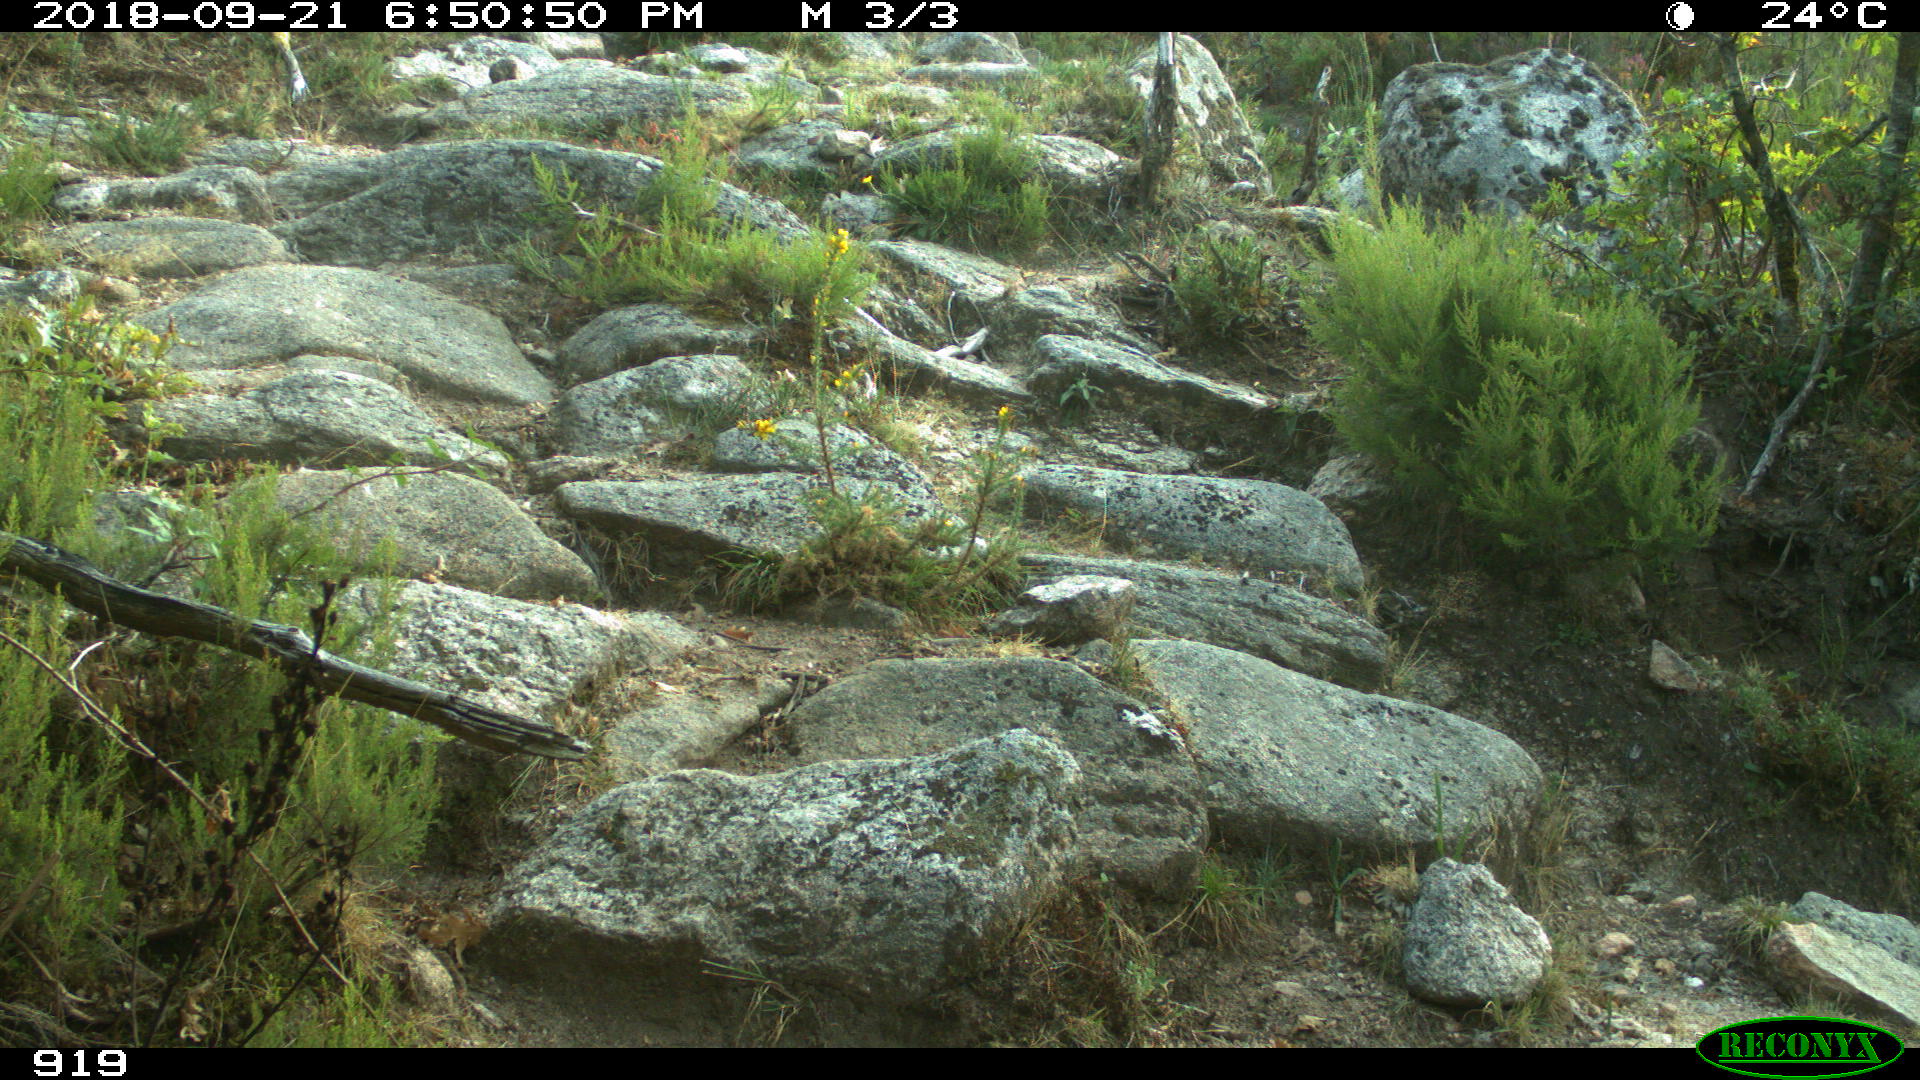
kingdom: Animalia
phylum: Chordata
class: Mammalia
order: Artiodactyla
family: Bovidae
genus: Bos
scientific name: Bos taurus
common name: Domesticated cattle
